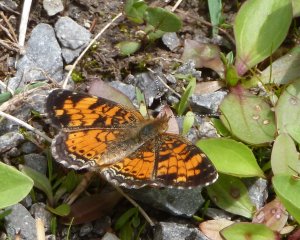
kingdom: Animalia
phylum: Arthropoda
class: Insecta
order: Lepidoptera
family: Nymphalidae
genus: Phyciodes
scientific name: Phyciodes tharos
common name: Northern Crescent
